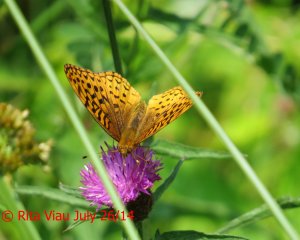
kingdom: Animalia
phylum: Arthropoda
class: Insecta
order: Lepidoptera
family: Nymphalidae
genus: Speyeria
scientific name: Speyeria cybele
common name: Great Spangled Fritillary
